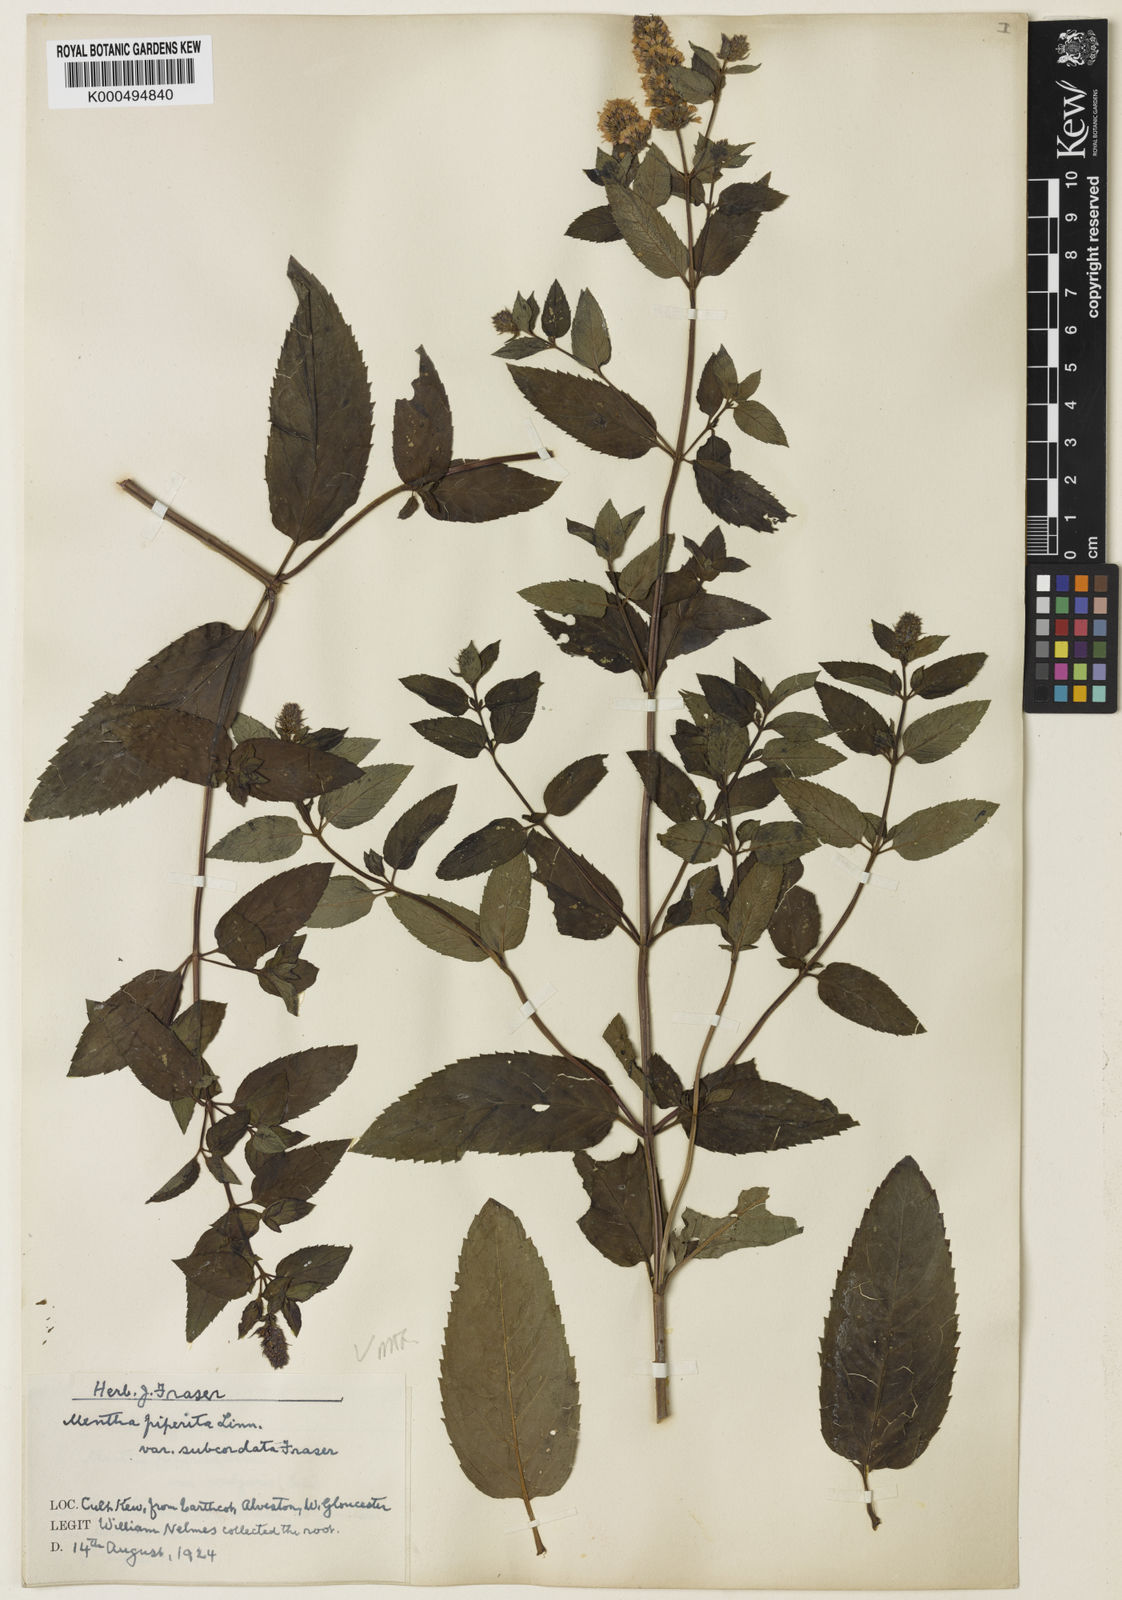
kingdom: Plantae
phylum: Tracheophyta
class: Magnoliopsida
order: Lamiales
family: Lamiaceae
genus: Mentha
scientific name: Mentha piperita
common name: Peppermint
